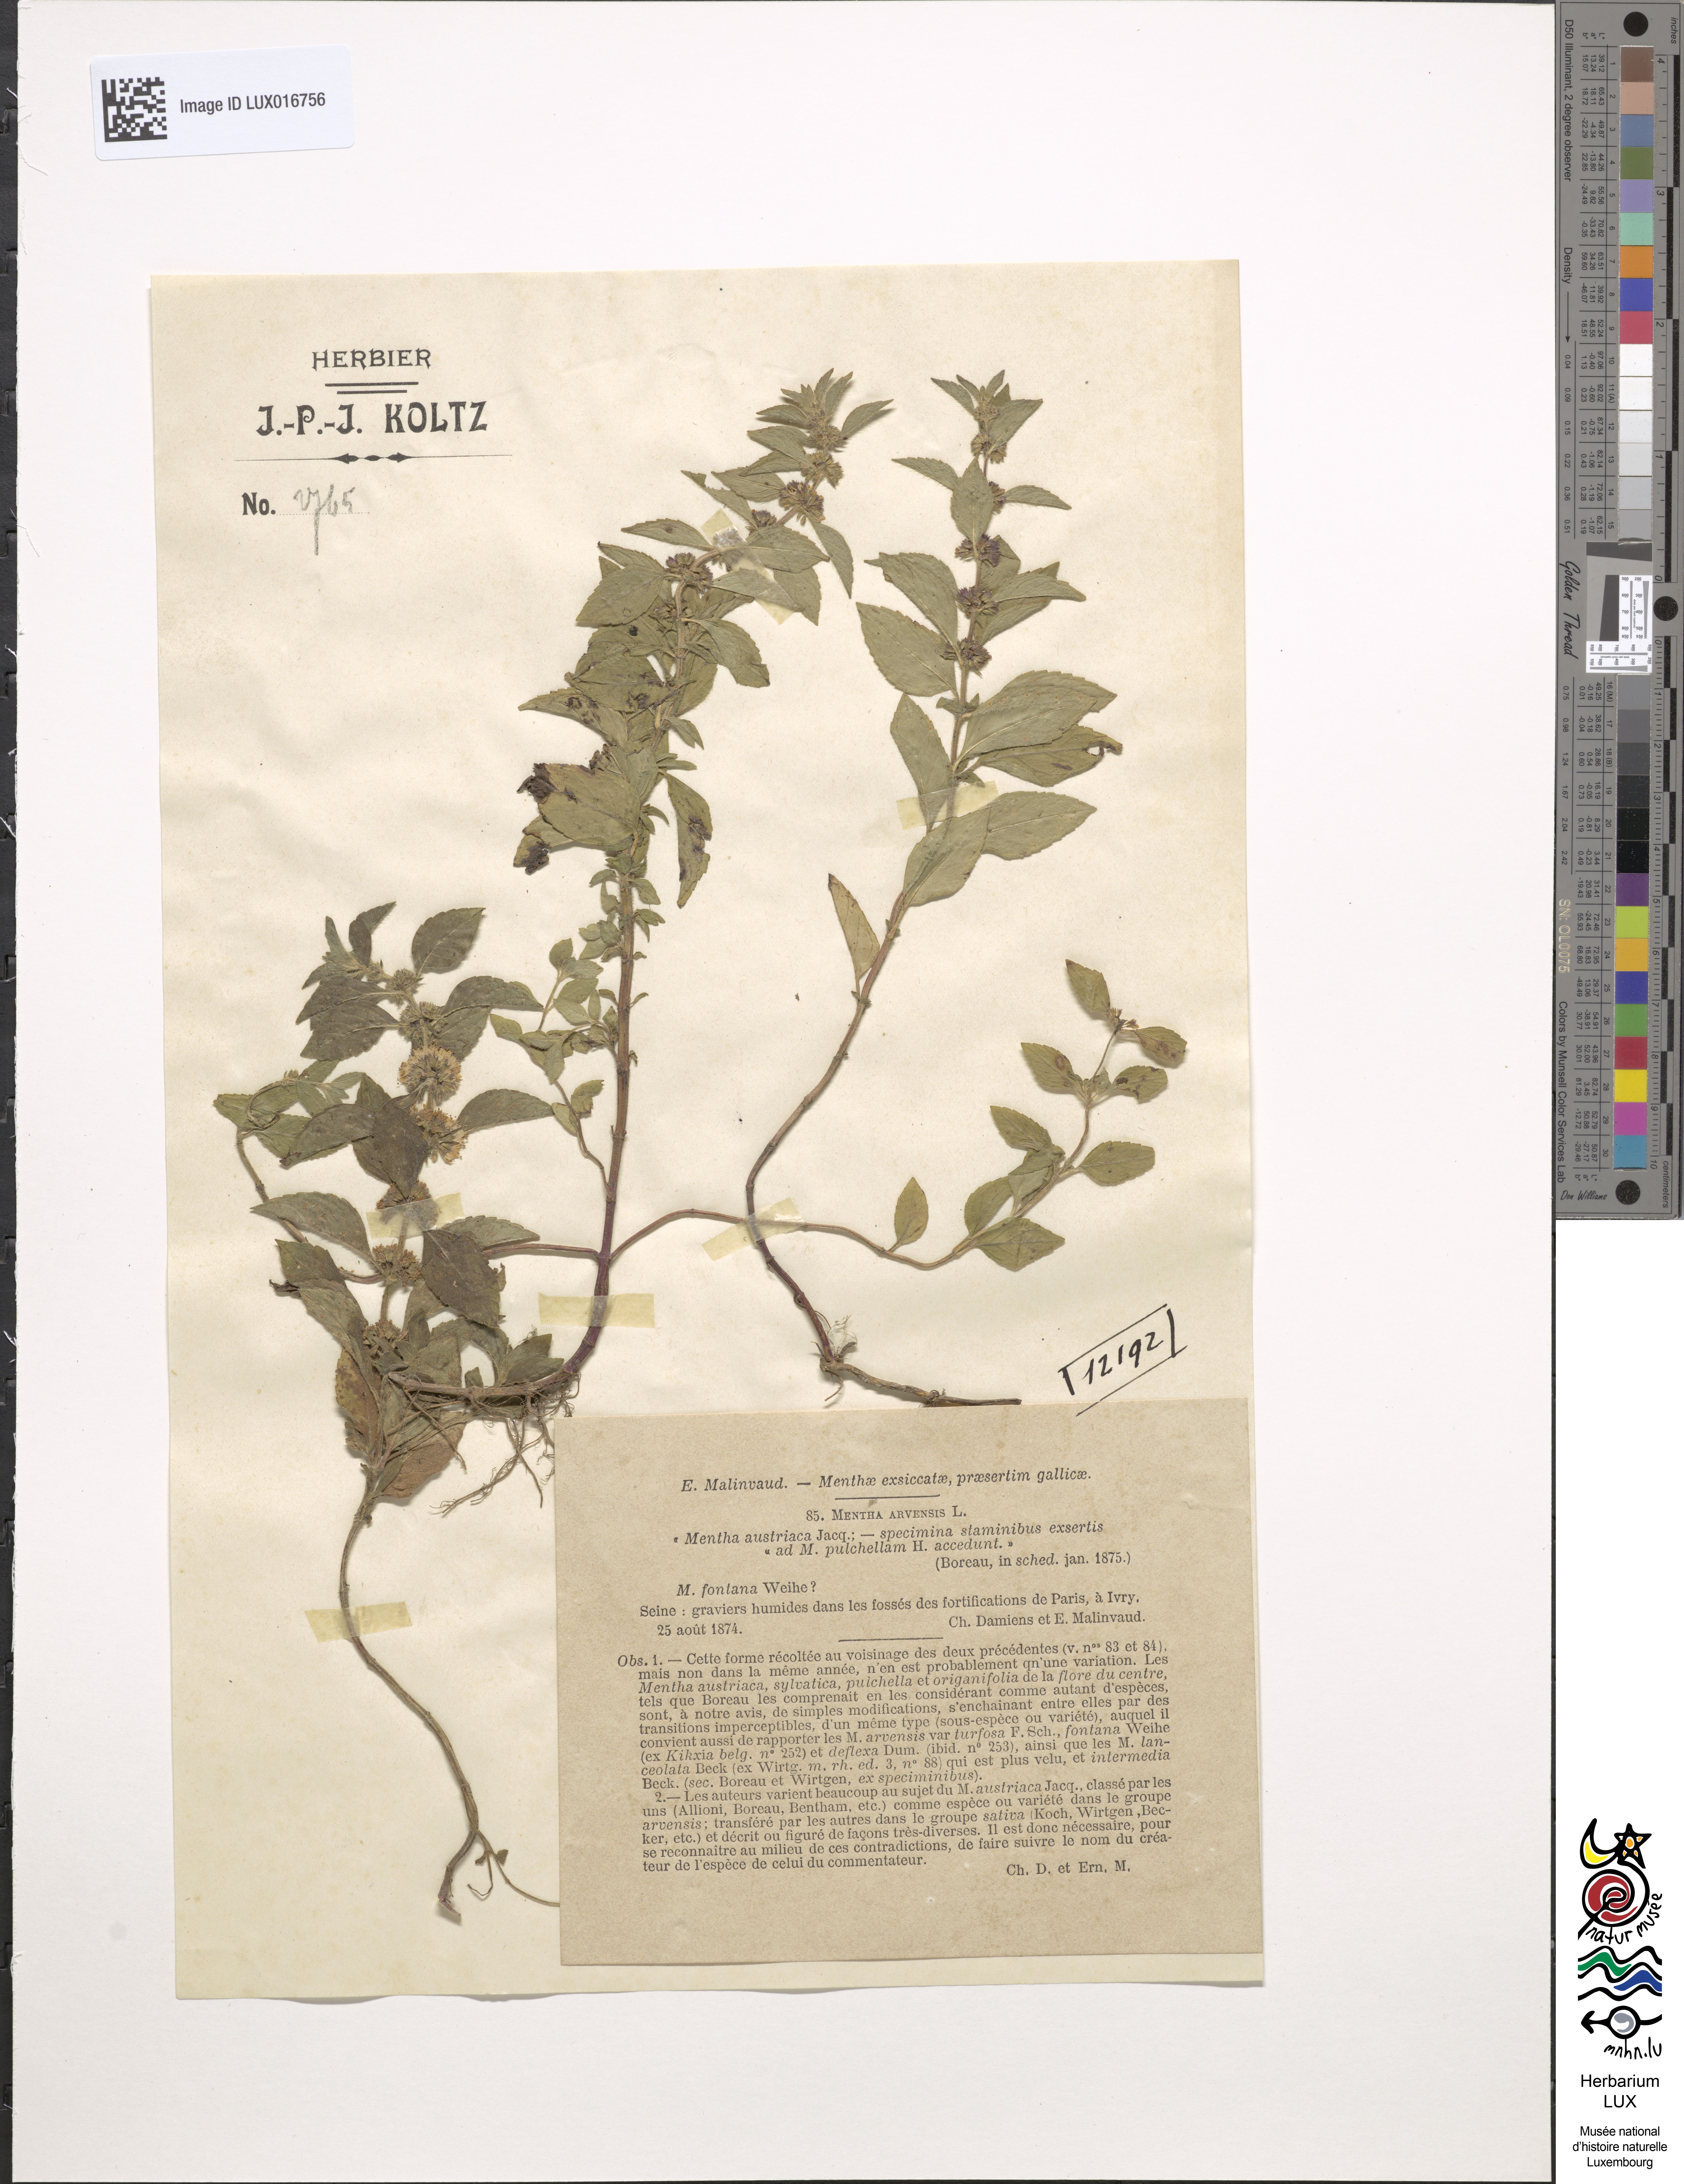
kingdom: Plantae
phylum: Tracheophyta
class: Magnoliopsida
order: Lamiales
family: Lamiaceae
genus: Mentha
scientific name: Mentha arvensis
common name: Corn mint
